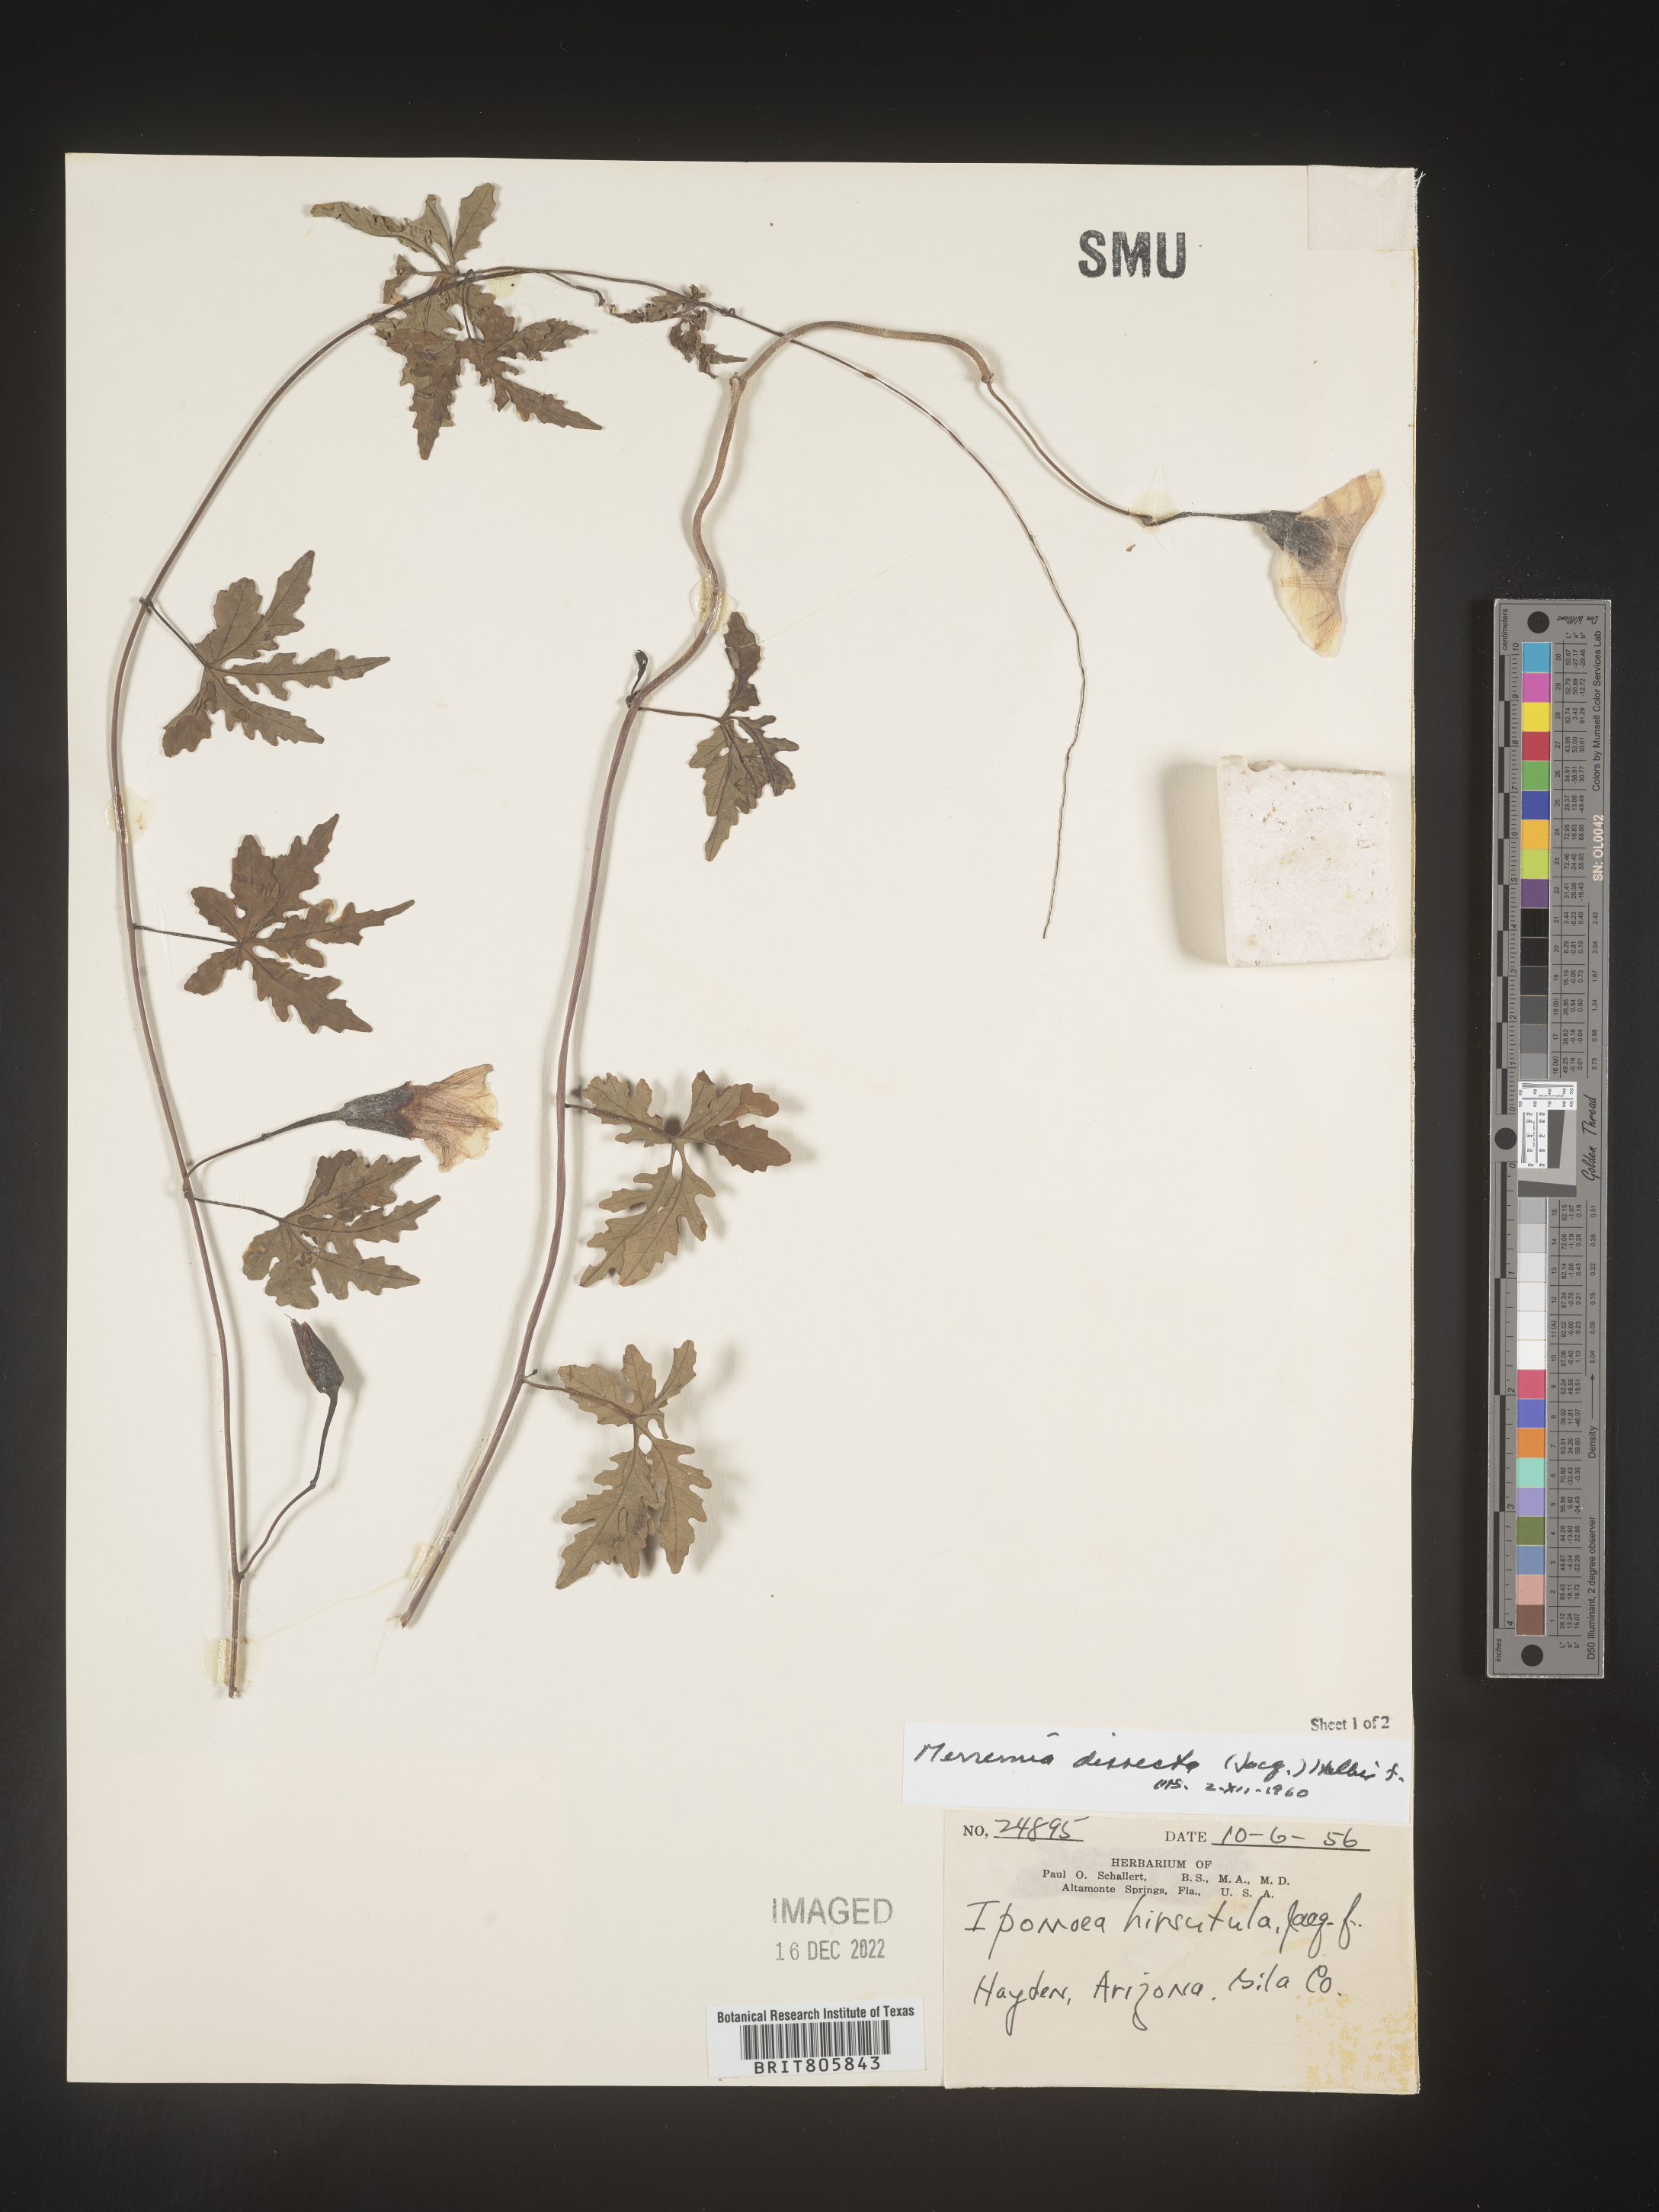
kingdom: Plantae
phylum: Tracheophyta
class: Magnoliopsida
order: Solanales
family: Convolvulaceae
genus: Merremia
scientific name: Merremia
